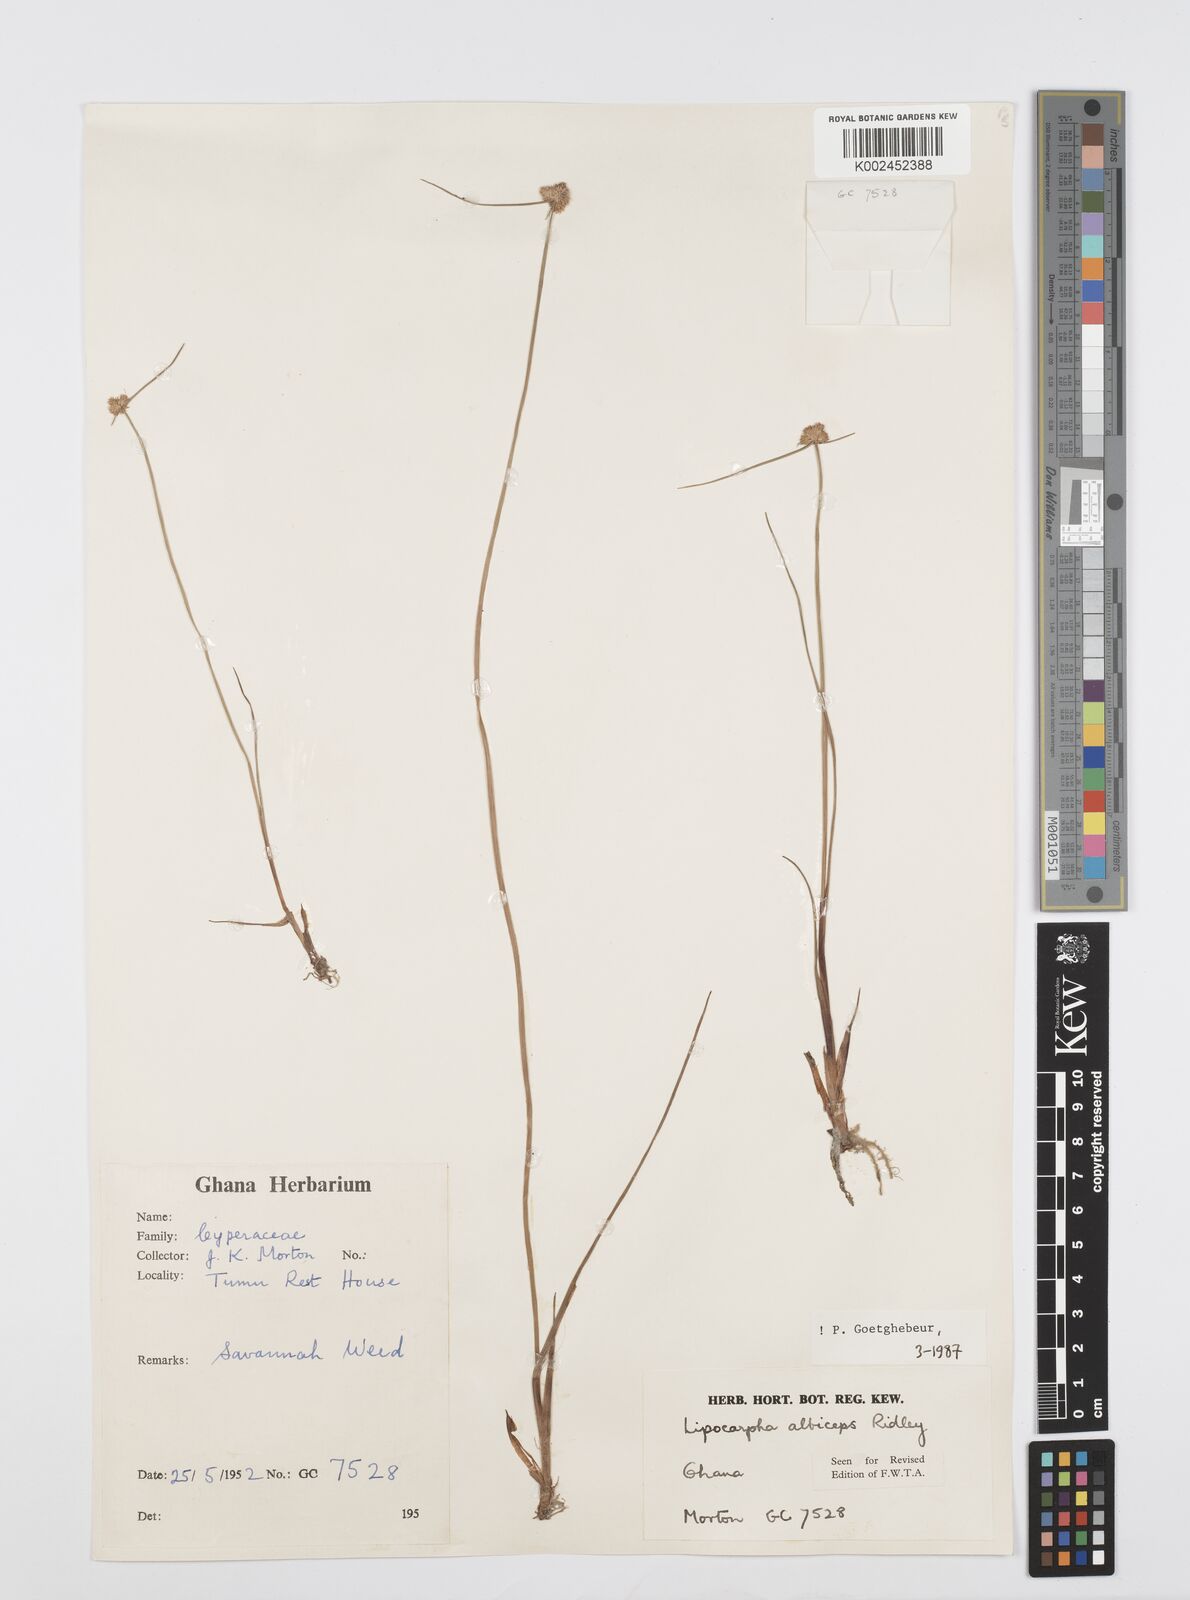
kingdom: Plantae
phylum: Tracheophyta
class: Liliopsida
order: Poales
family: Cyperaceae
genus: Cyperus
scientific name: Cyperus albiceps
